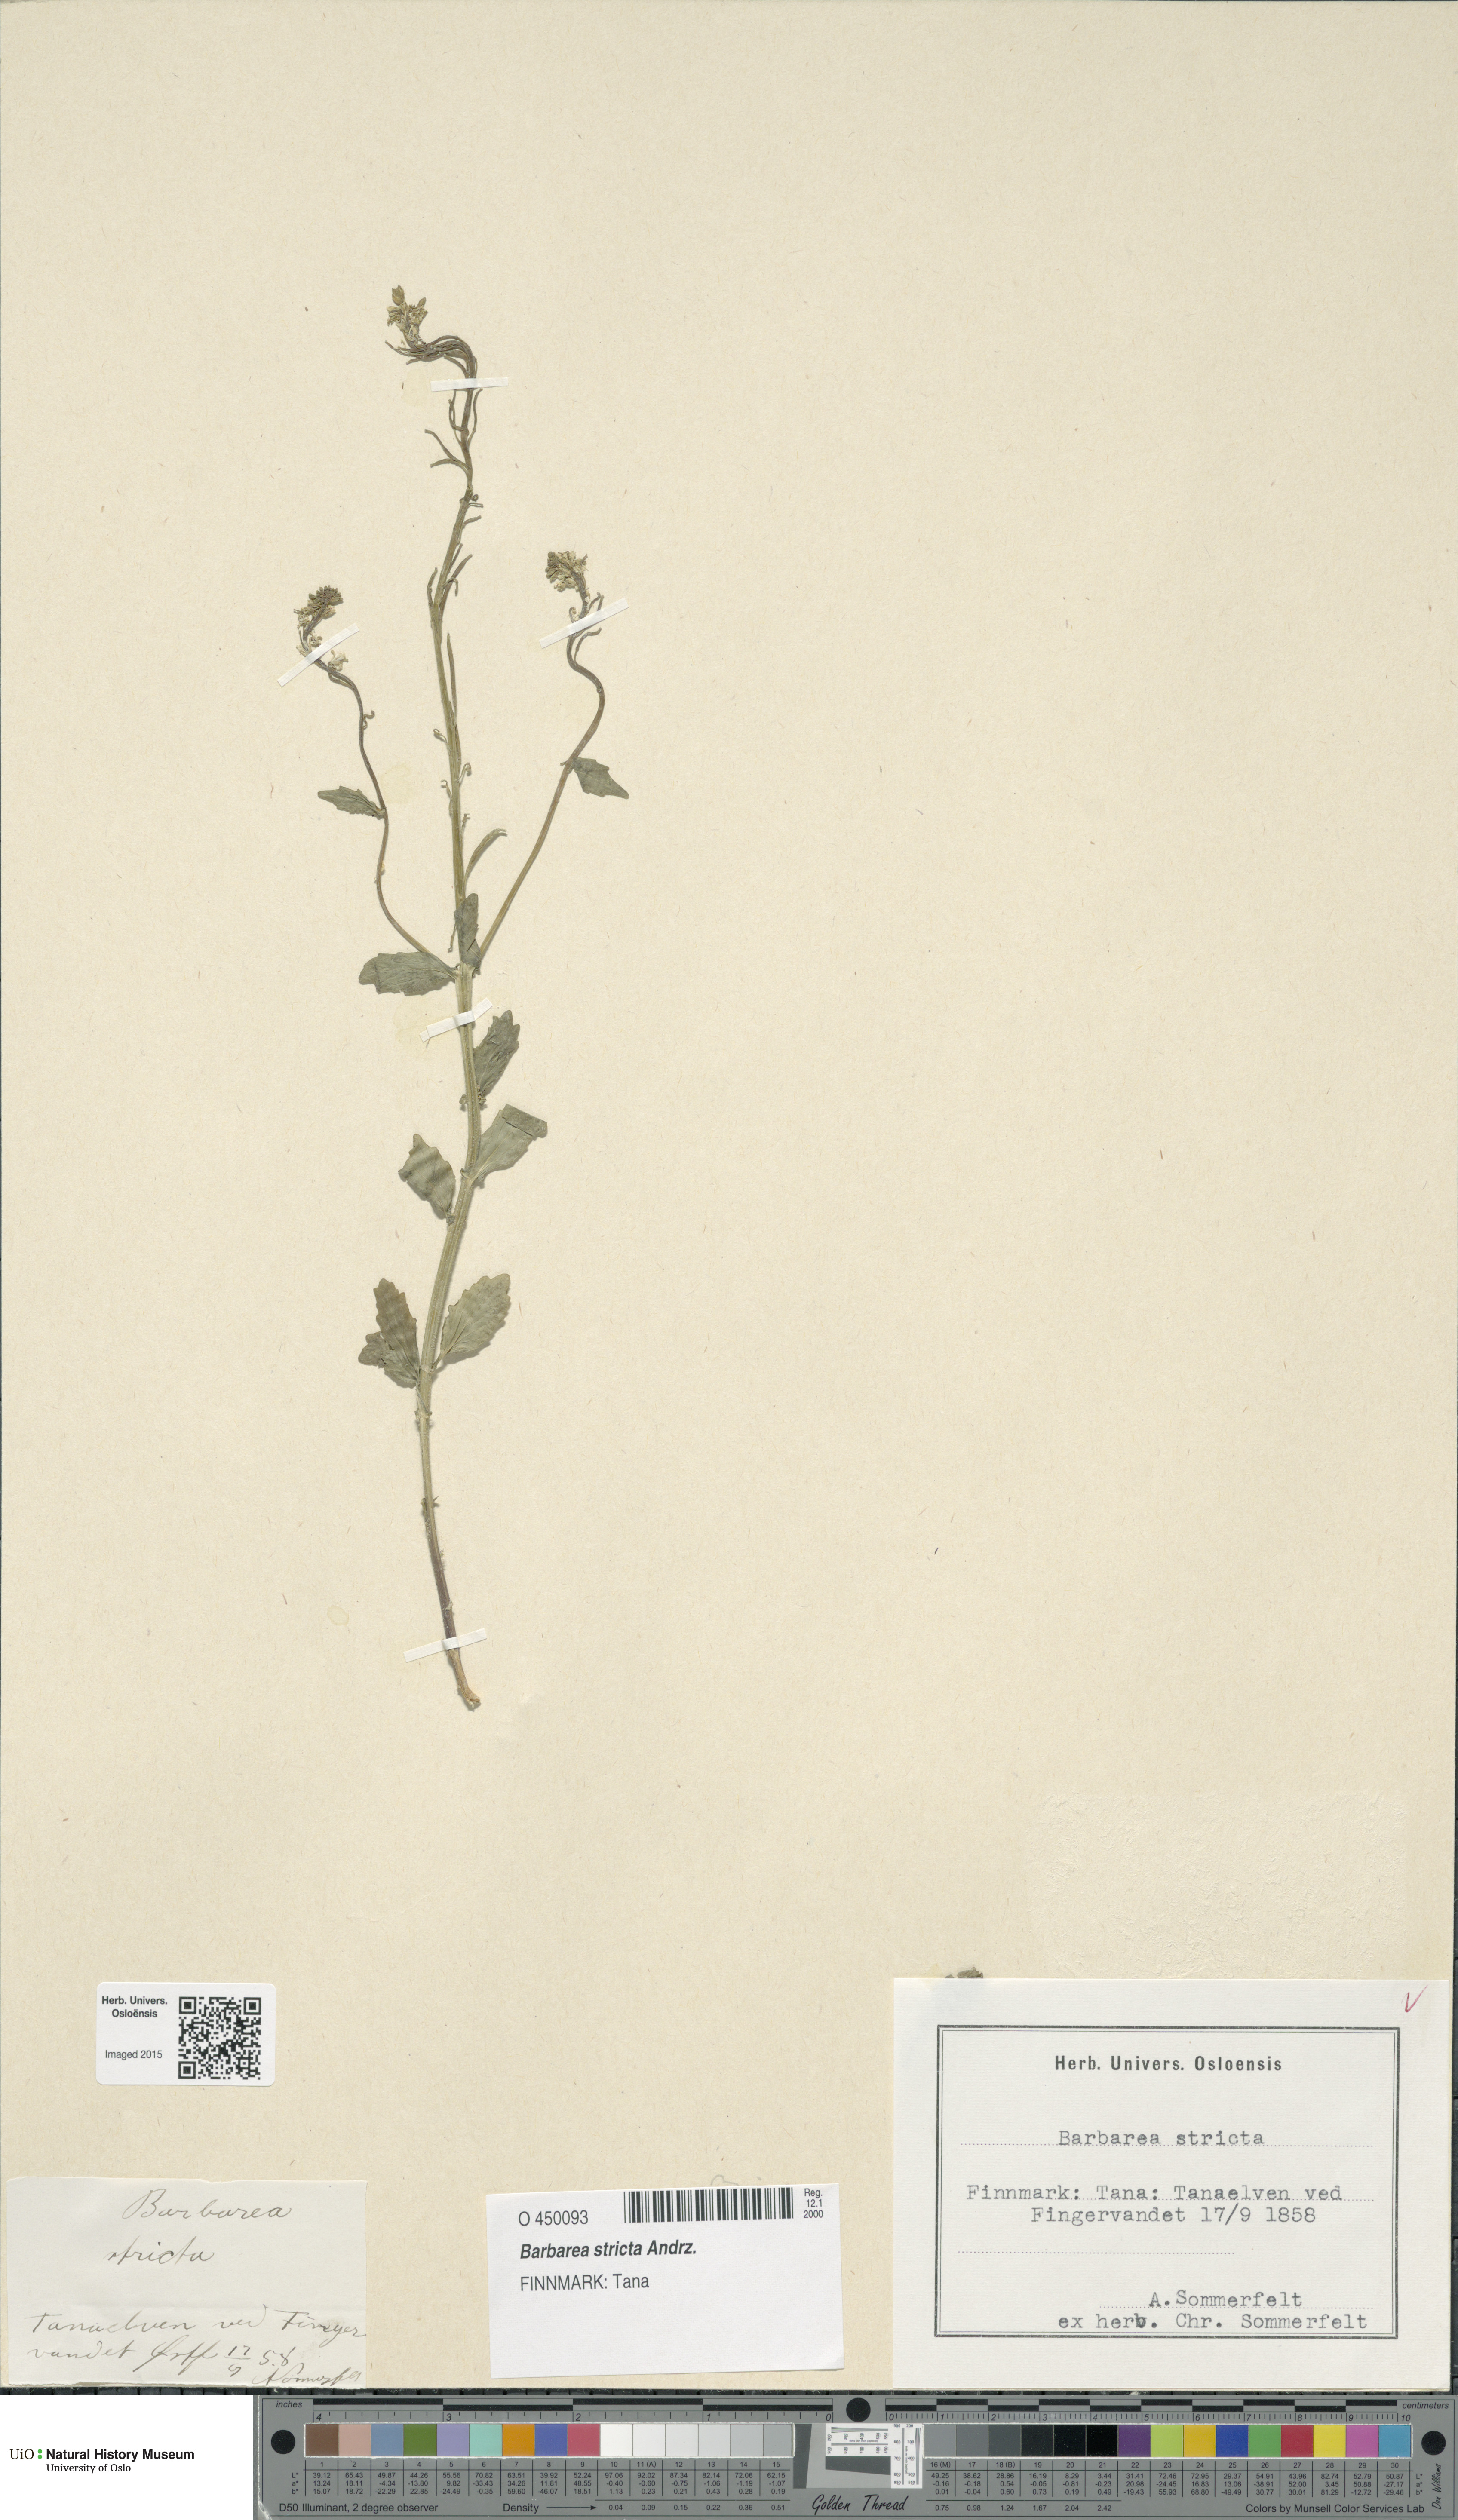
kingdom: Plantae
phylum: Tracheophyta
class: Magnoliopsida
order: Brassicales
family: Brassicaceae
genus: Barbarea
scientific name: Barbarea stricta
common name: Small-flowered winter-cress
